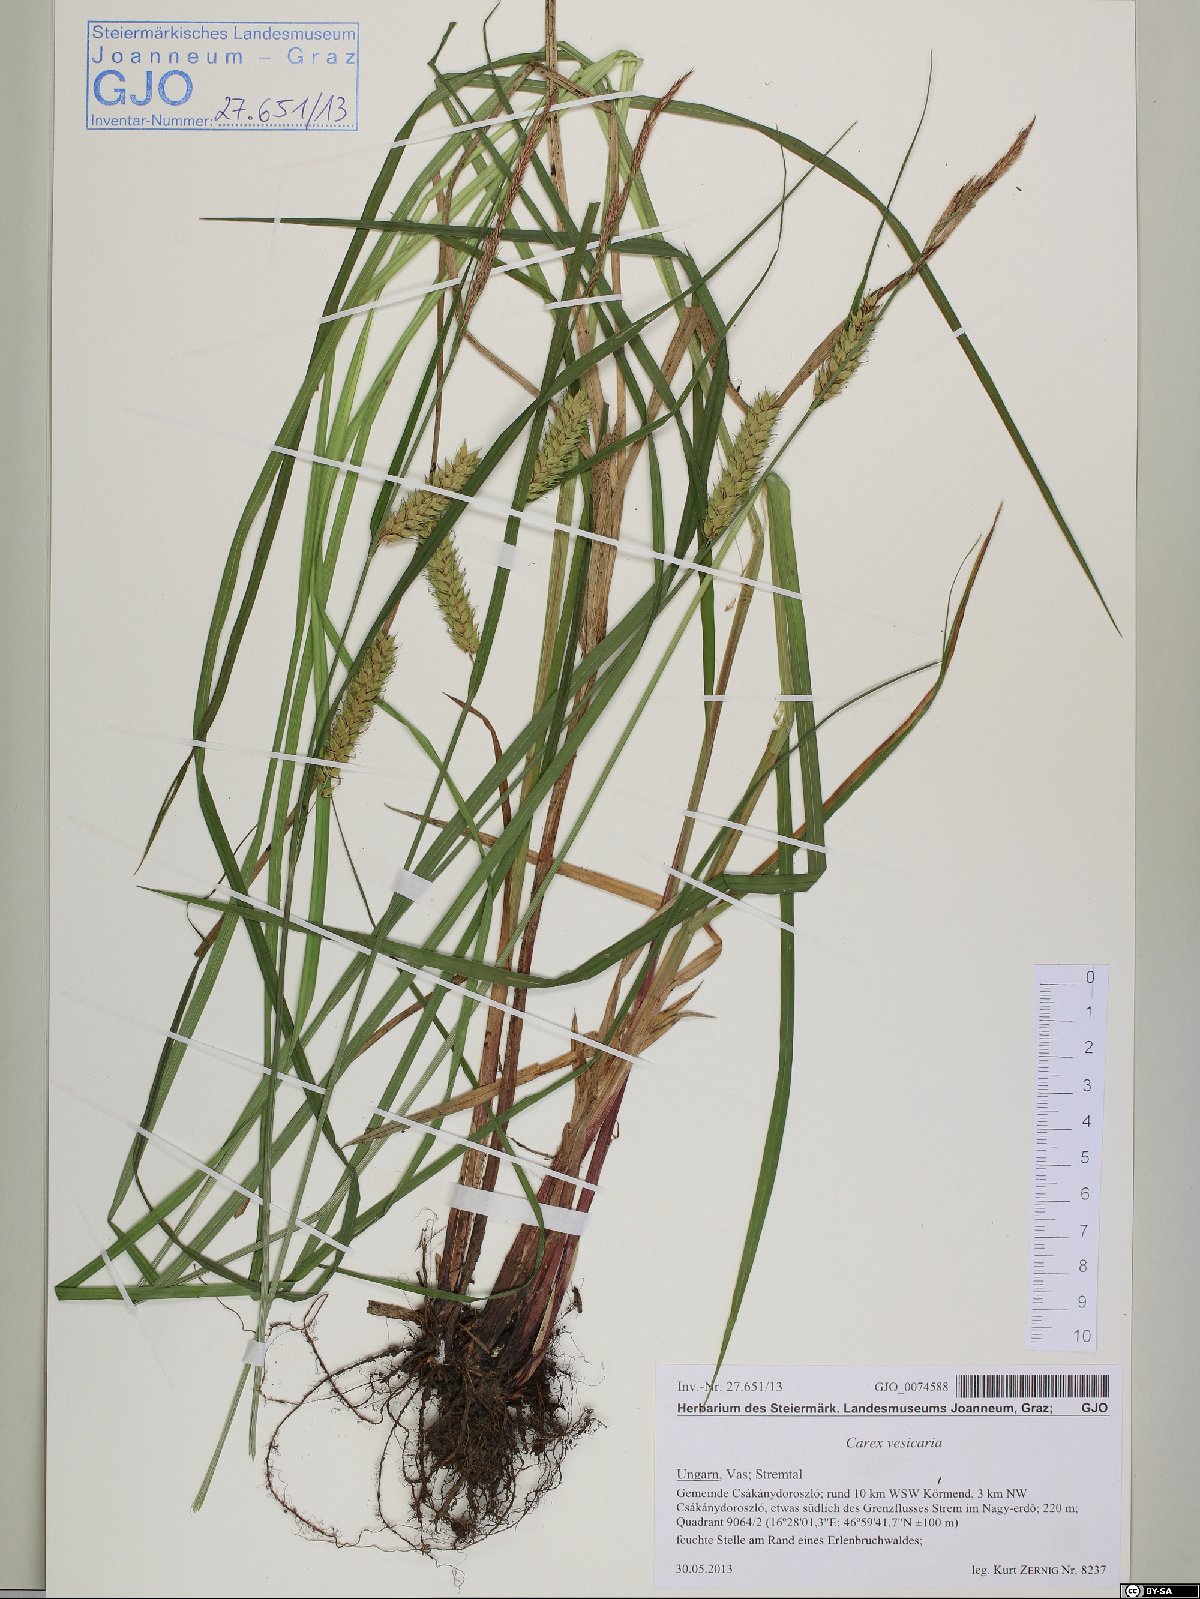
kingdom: Plantae
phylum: Tracheophyta
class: Liliopsida
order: Poales
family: Cyperaceae
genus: Carex
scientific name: Carex vesicaria
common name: Bladder-sedge
